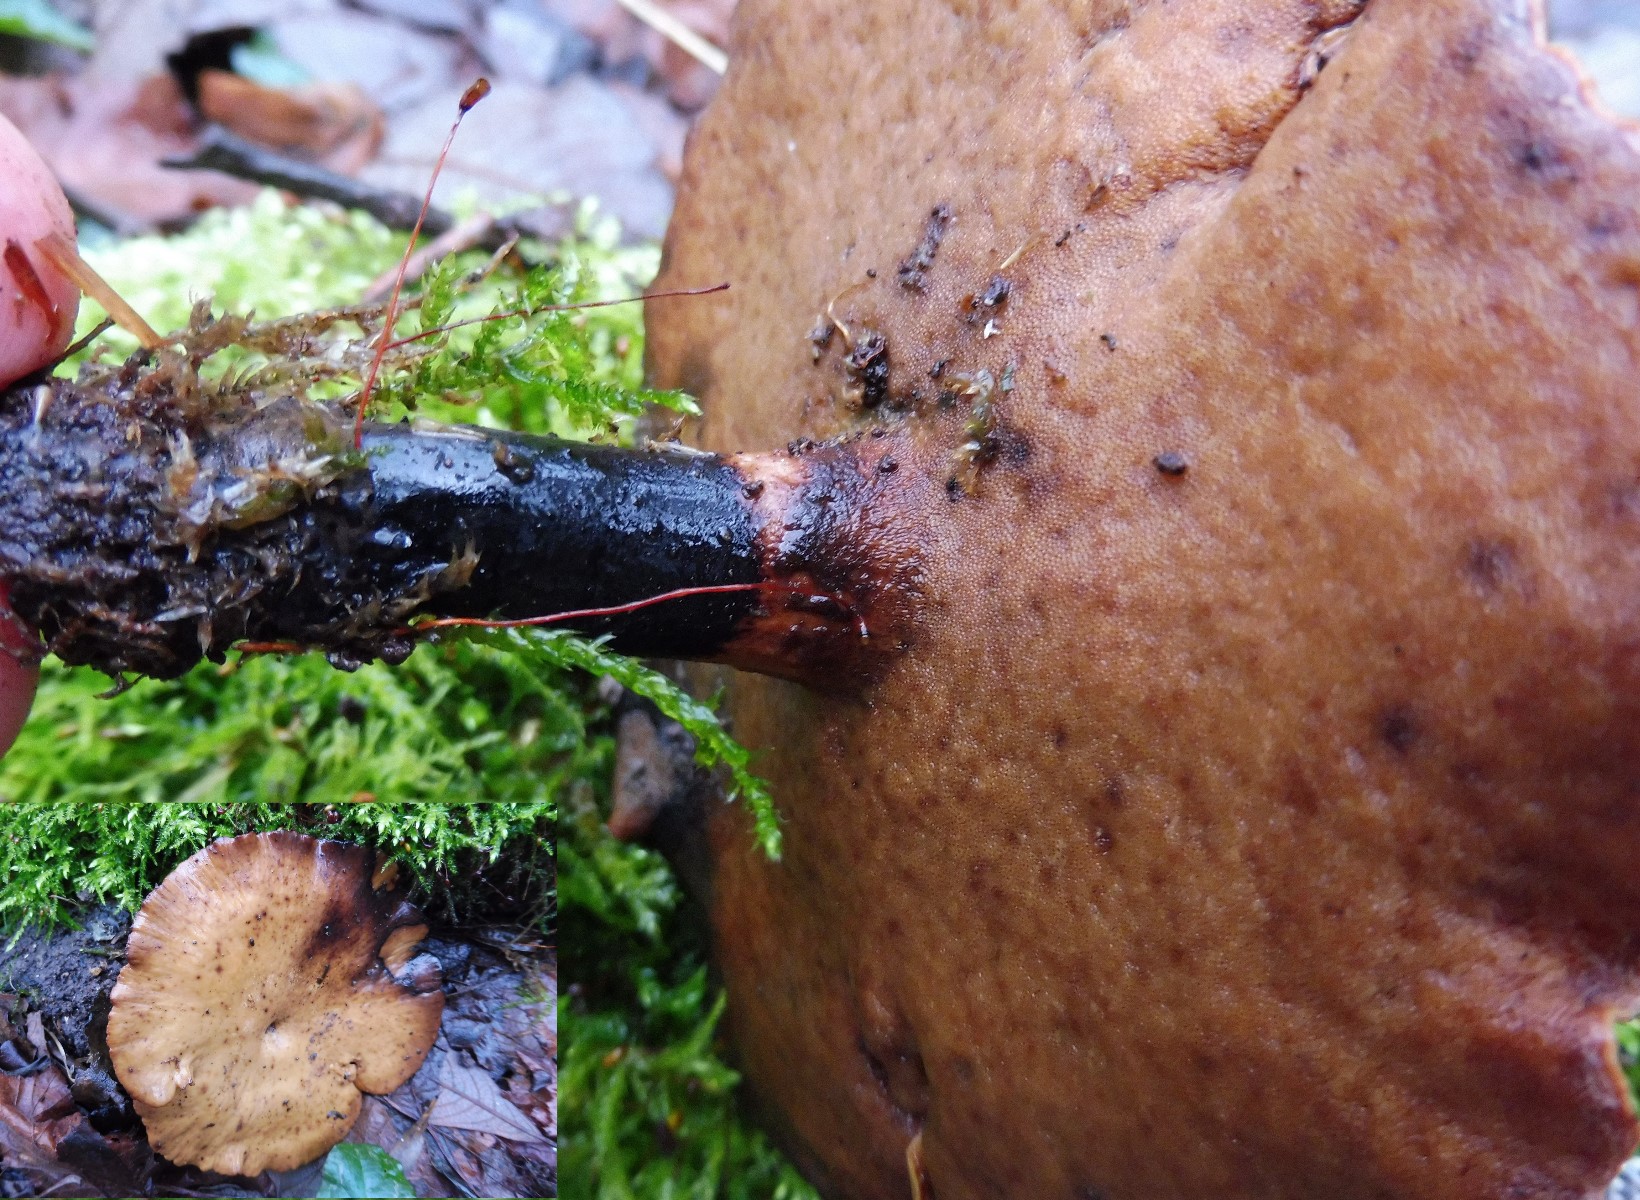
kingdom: Fungi
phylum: Basidiomycota
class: Agaricomycetes
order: Polyporales
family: Polyporaceae
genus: Cerioporus
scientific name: Cerioporus varius
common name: foranderlig stilkporesvamp
